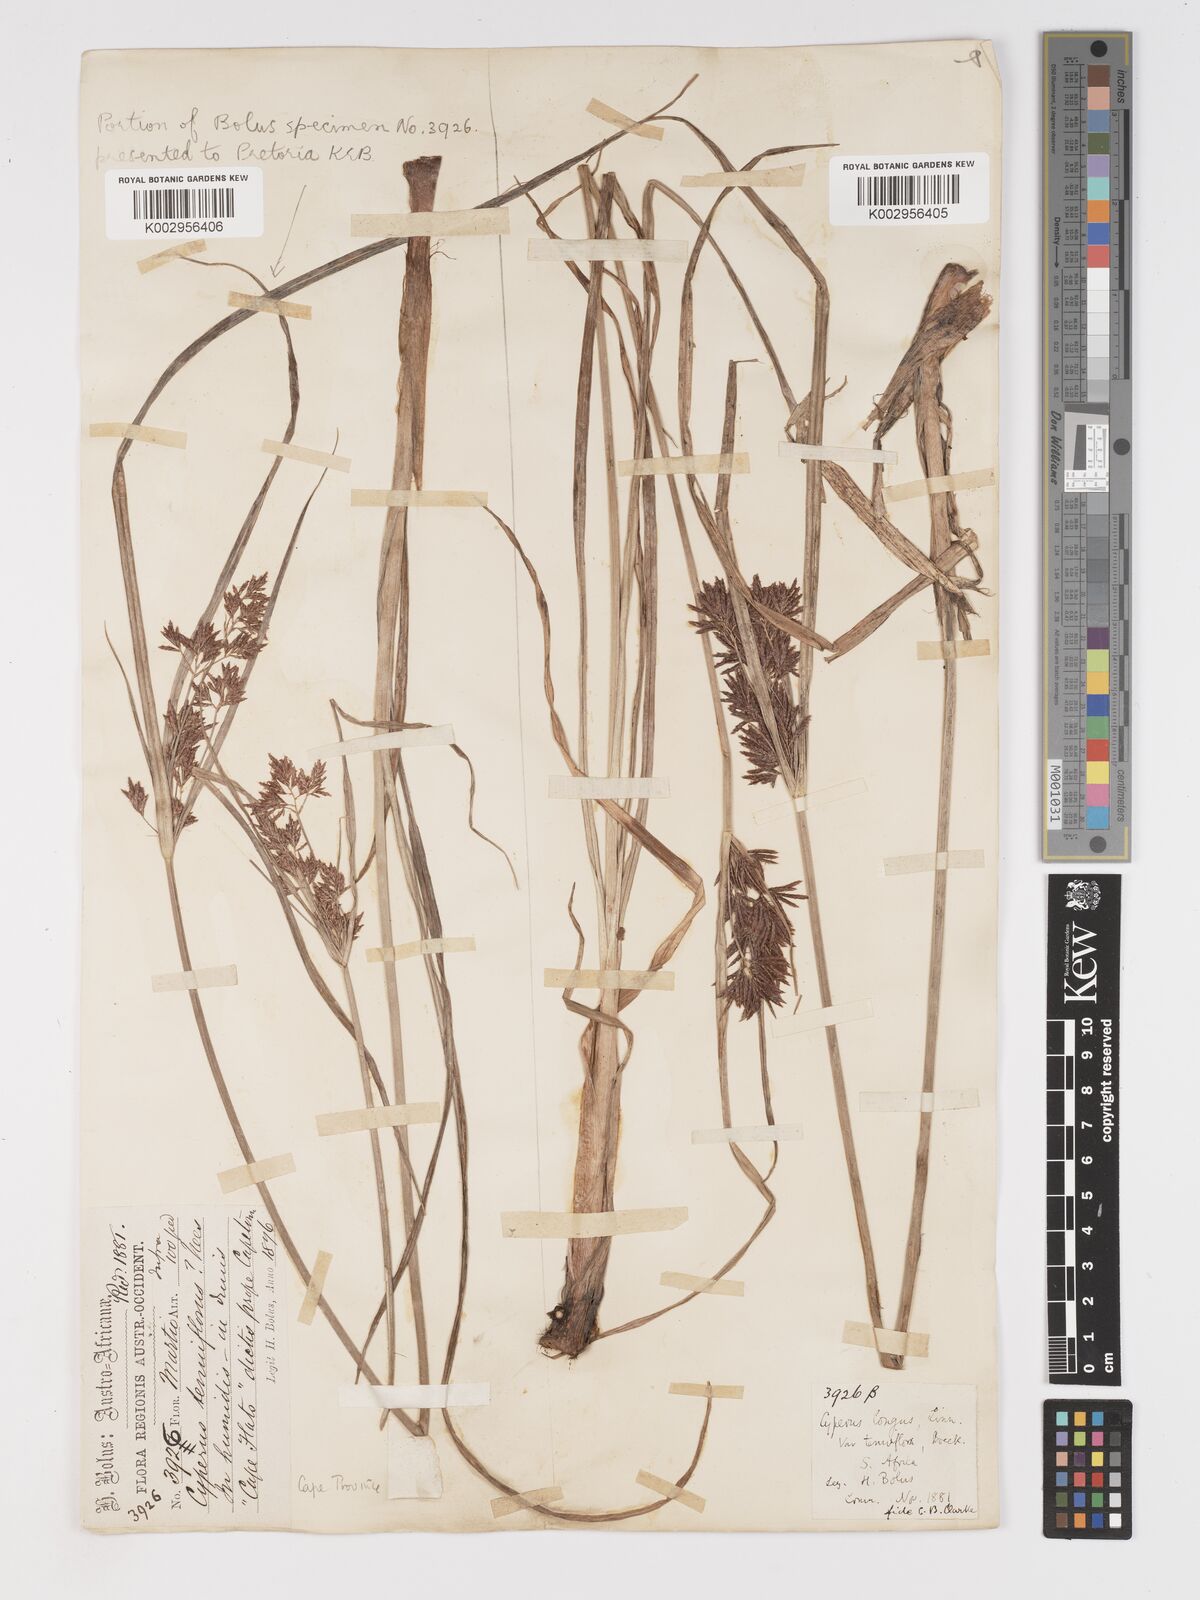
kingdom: Plantae
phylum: Tracheophyta
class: Liliopsida
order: Poales
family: Cyperaceae
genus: Cyperus
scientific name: Cyperus longus
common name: Galingale
